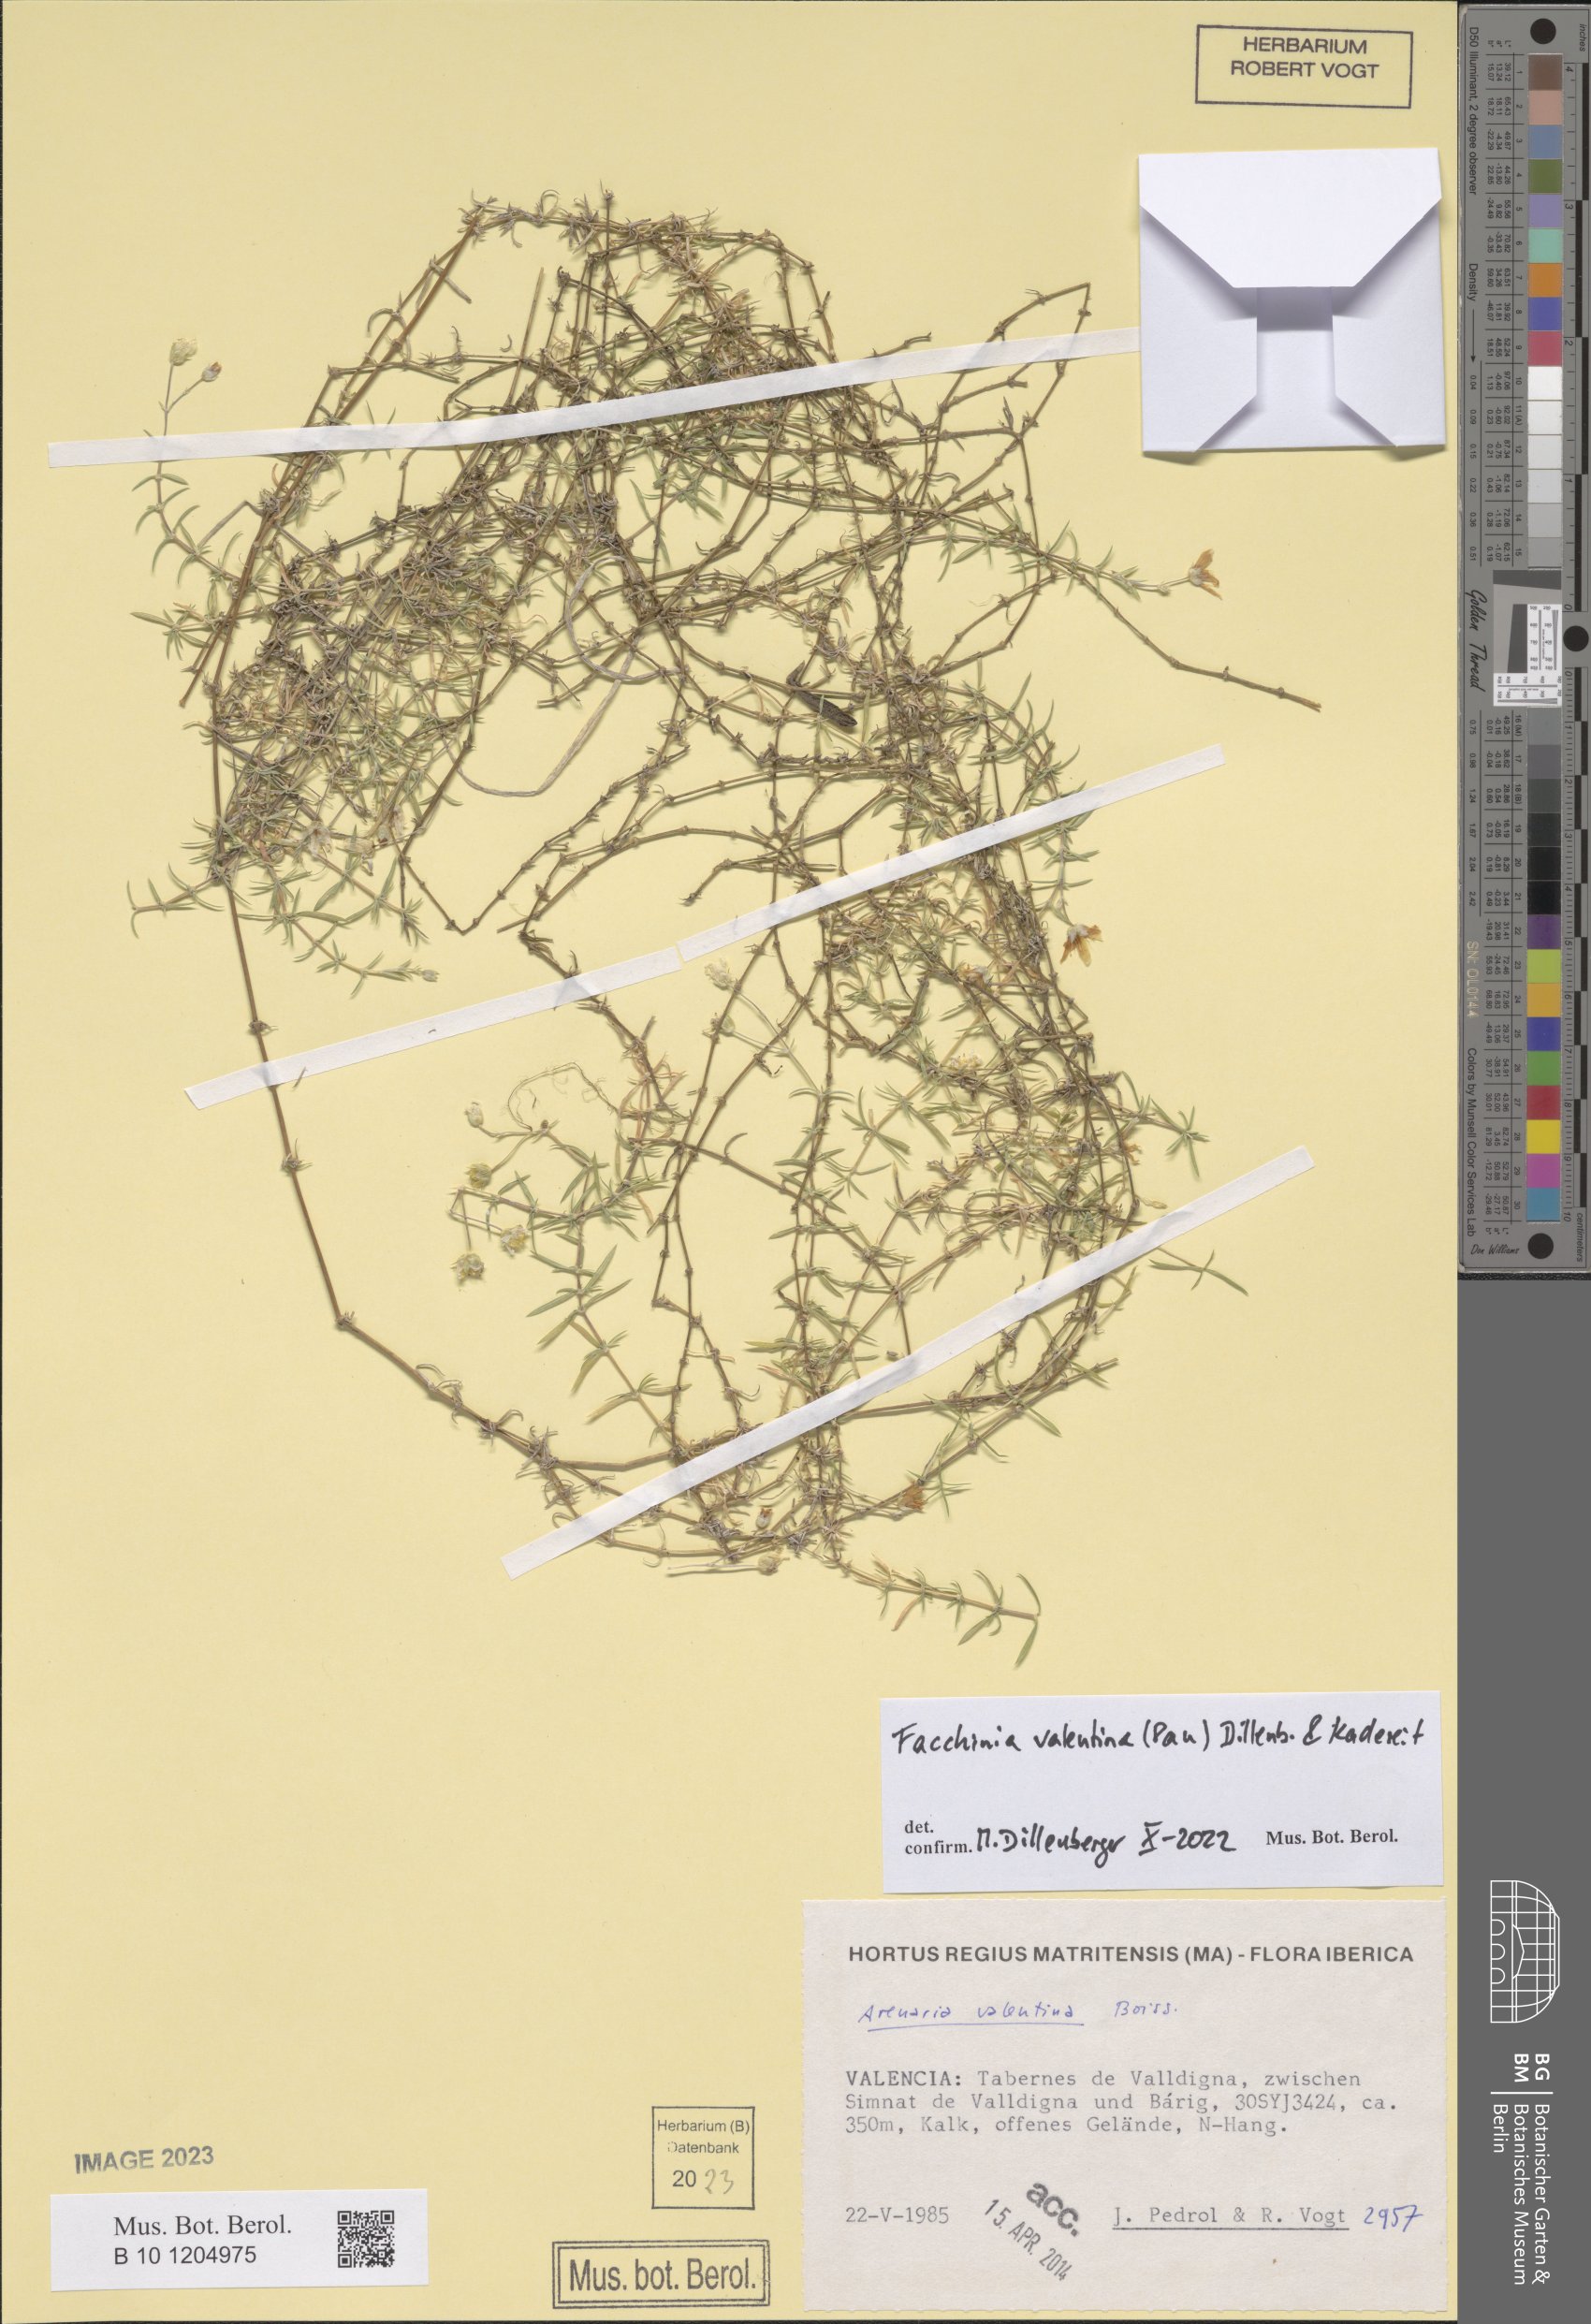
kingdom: Plantae
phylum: Tracheophyta
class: Magnoliopsida
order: Caryophyllales
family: Caryophyllaceae
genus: Facchinia
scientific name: Facchinia valentina
